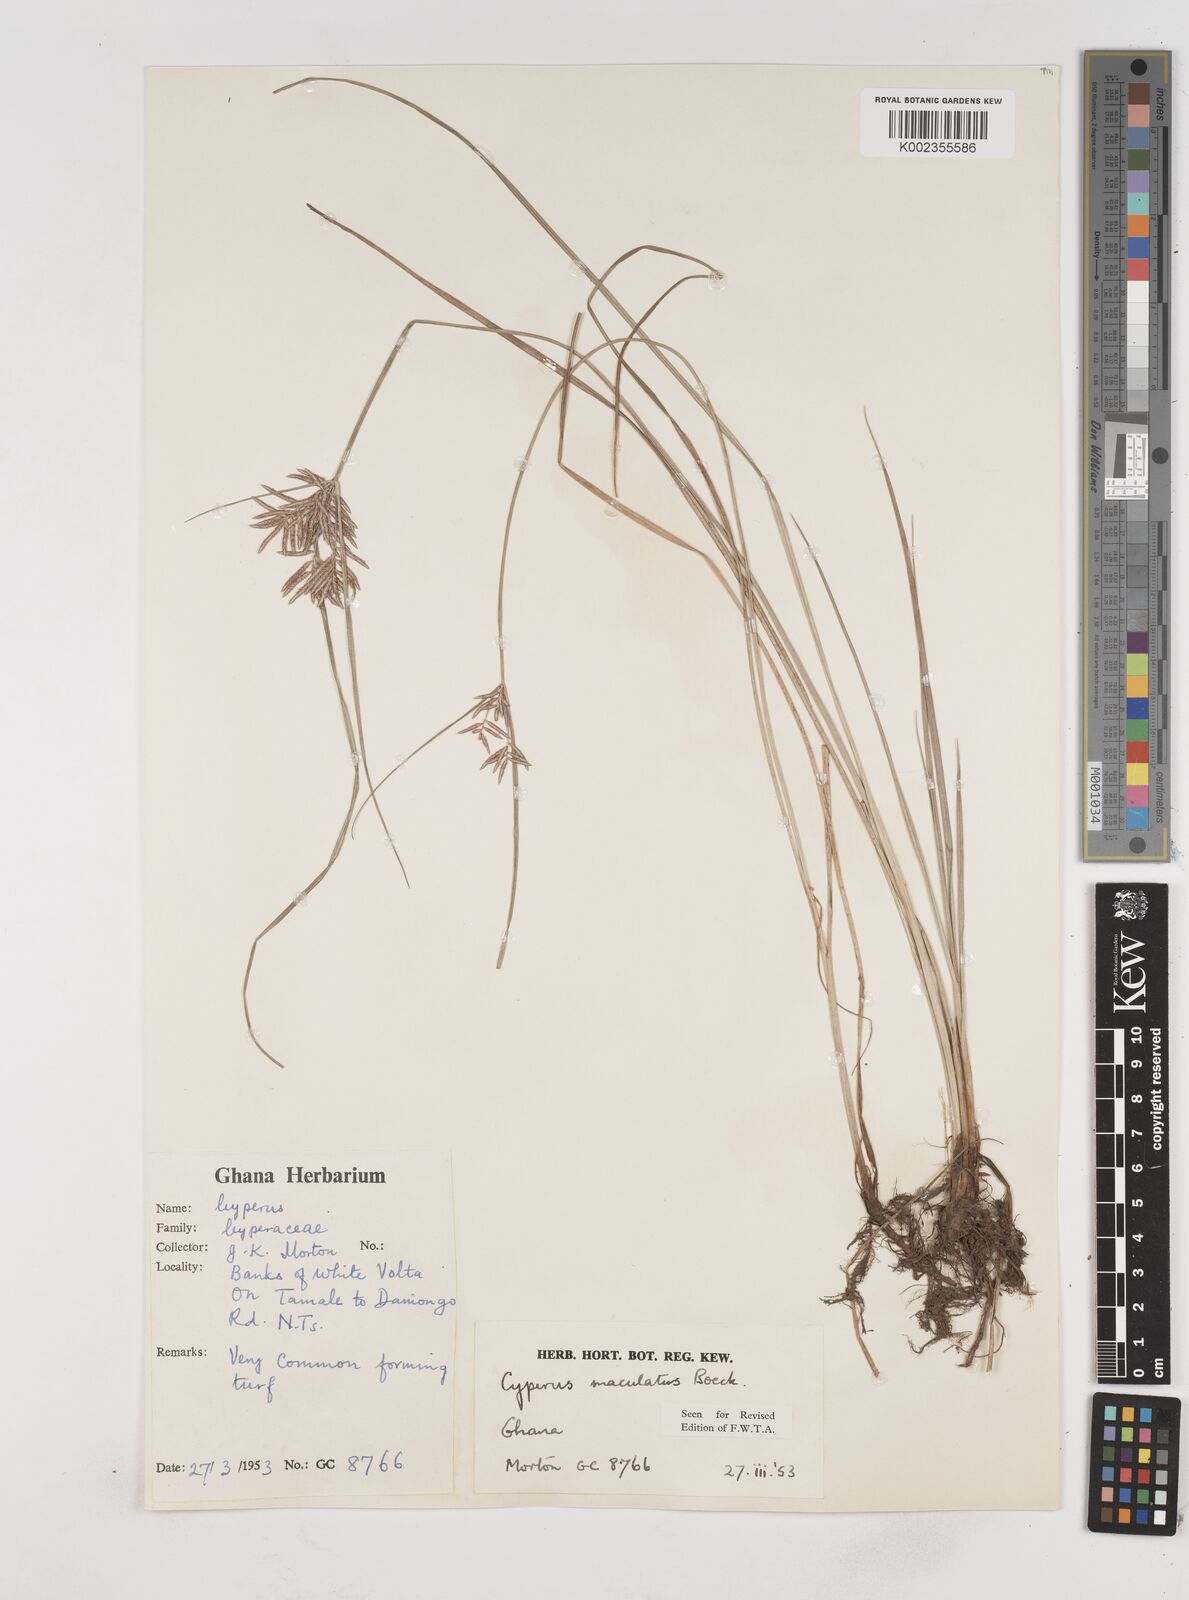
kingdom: Plantae
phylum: Tracheophyta
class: Liliopsida
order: Poales
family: Cyperaceae
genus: Cyperus
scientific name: Cyperus maculatus
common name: Maculated sedge
